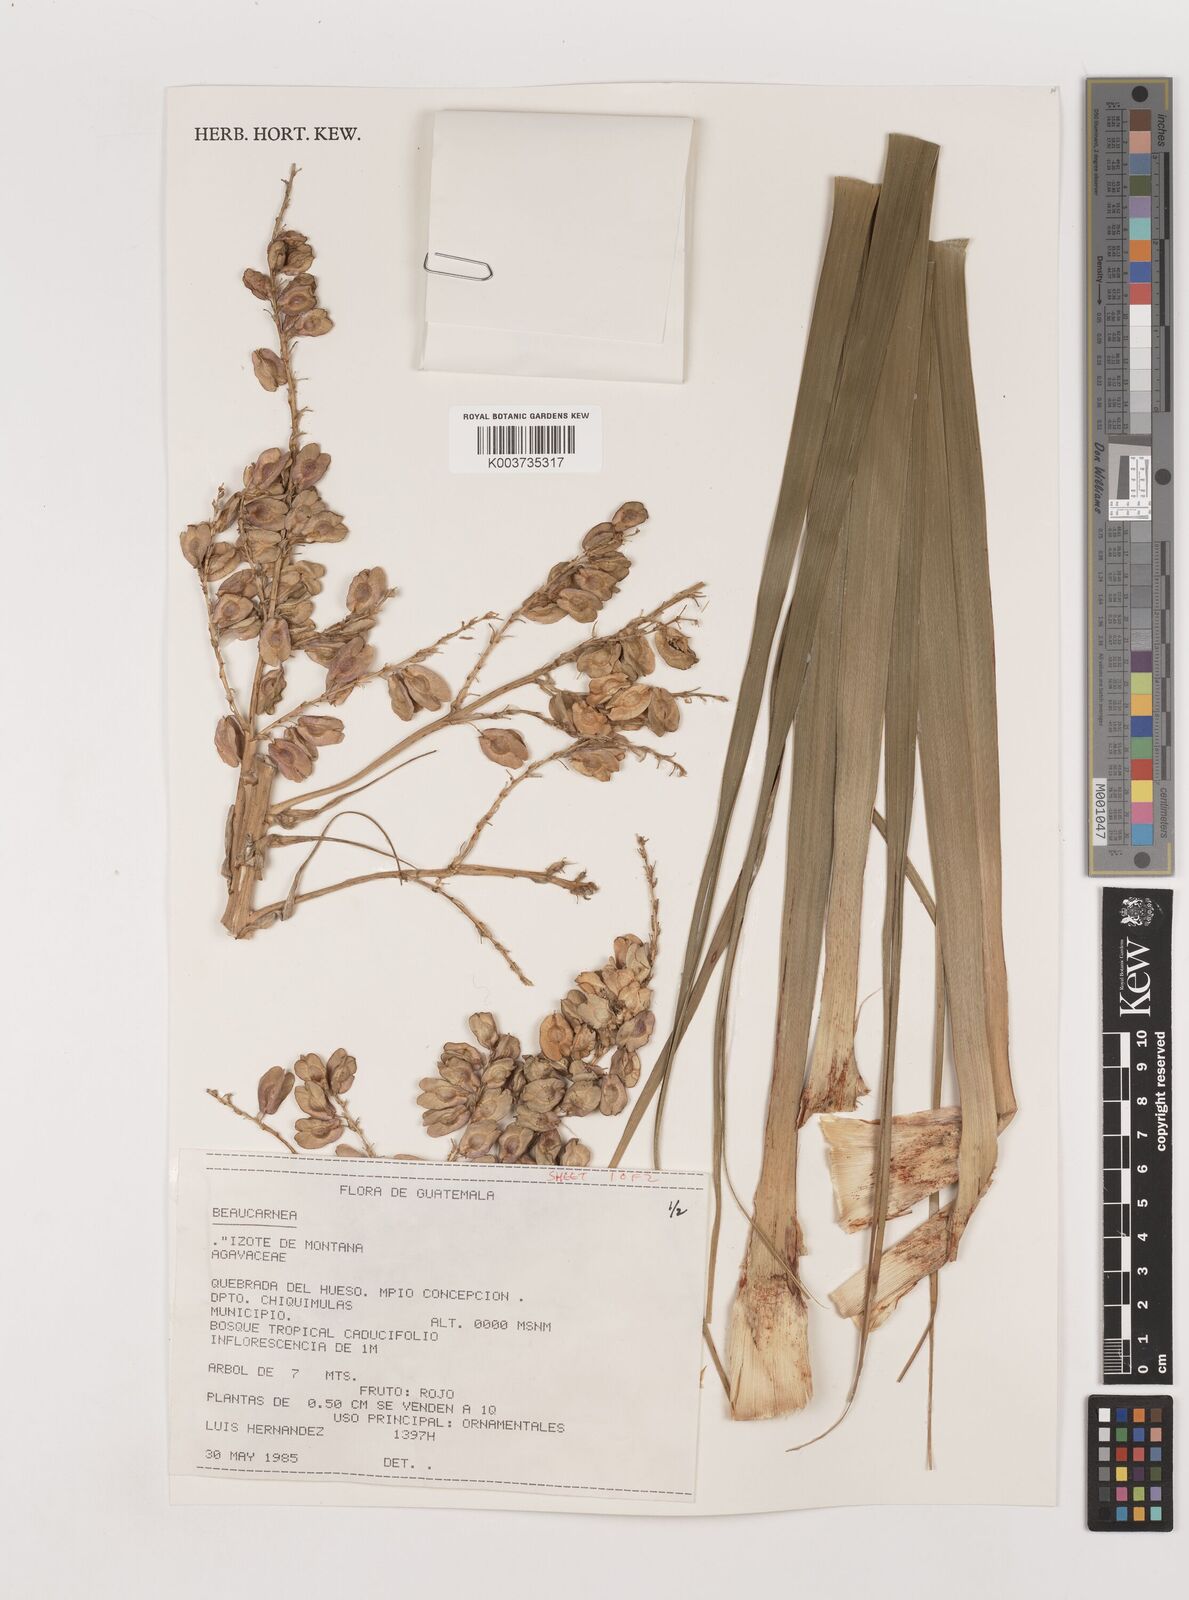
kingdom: Plantae
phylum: Tracheophyta
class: Liliopsida
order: Asparagales
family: Asparagaceae
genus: Beaucarnea
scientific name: Beaucarnea goldmanii
